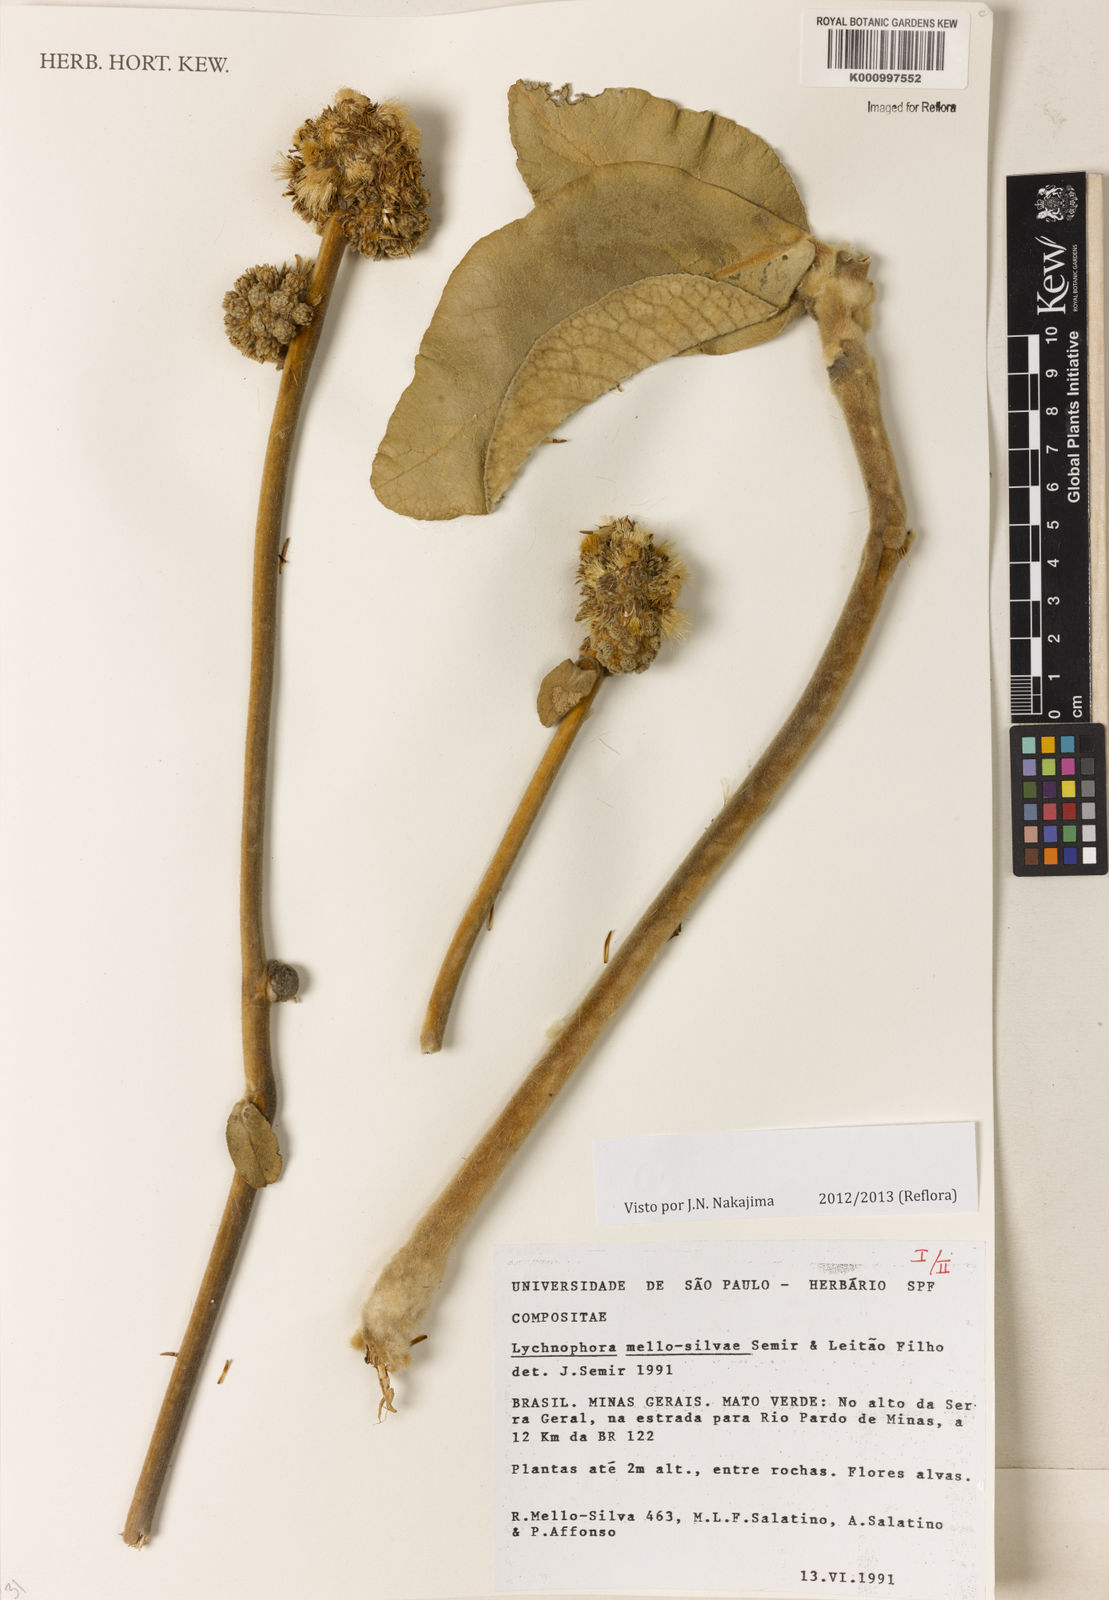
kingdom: Plantae
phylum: Tracheophyta
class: Magnoliopsida
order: Asterales
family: Asteraceae
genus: Lychnophora
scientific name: Lychnophora
